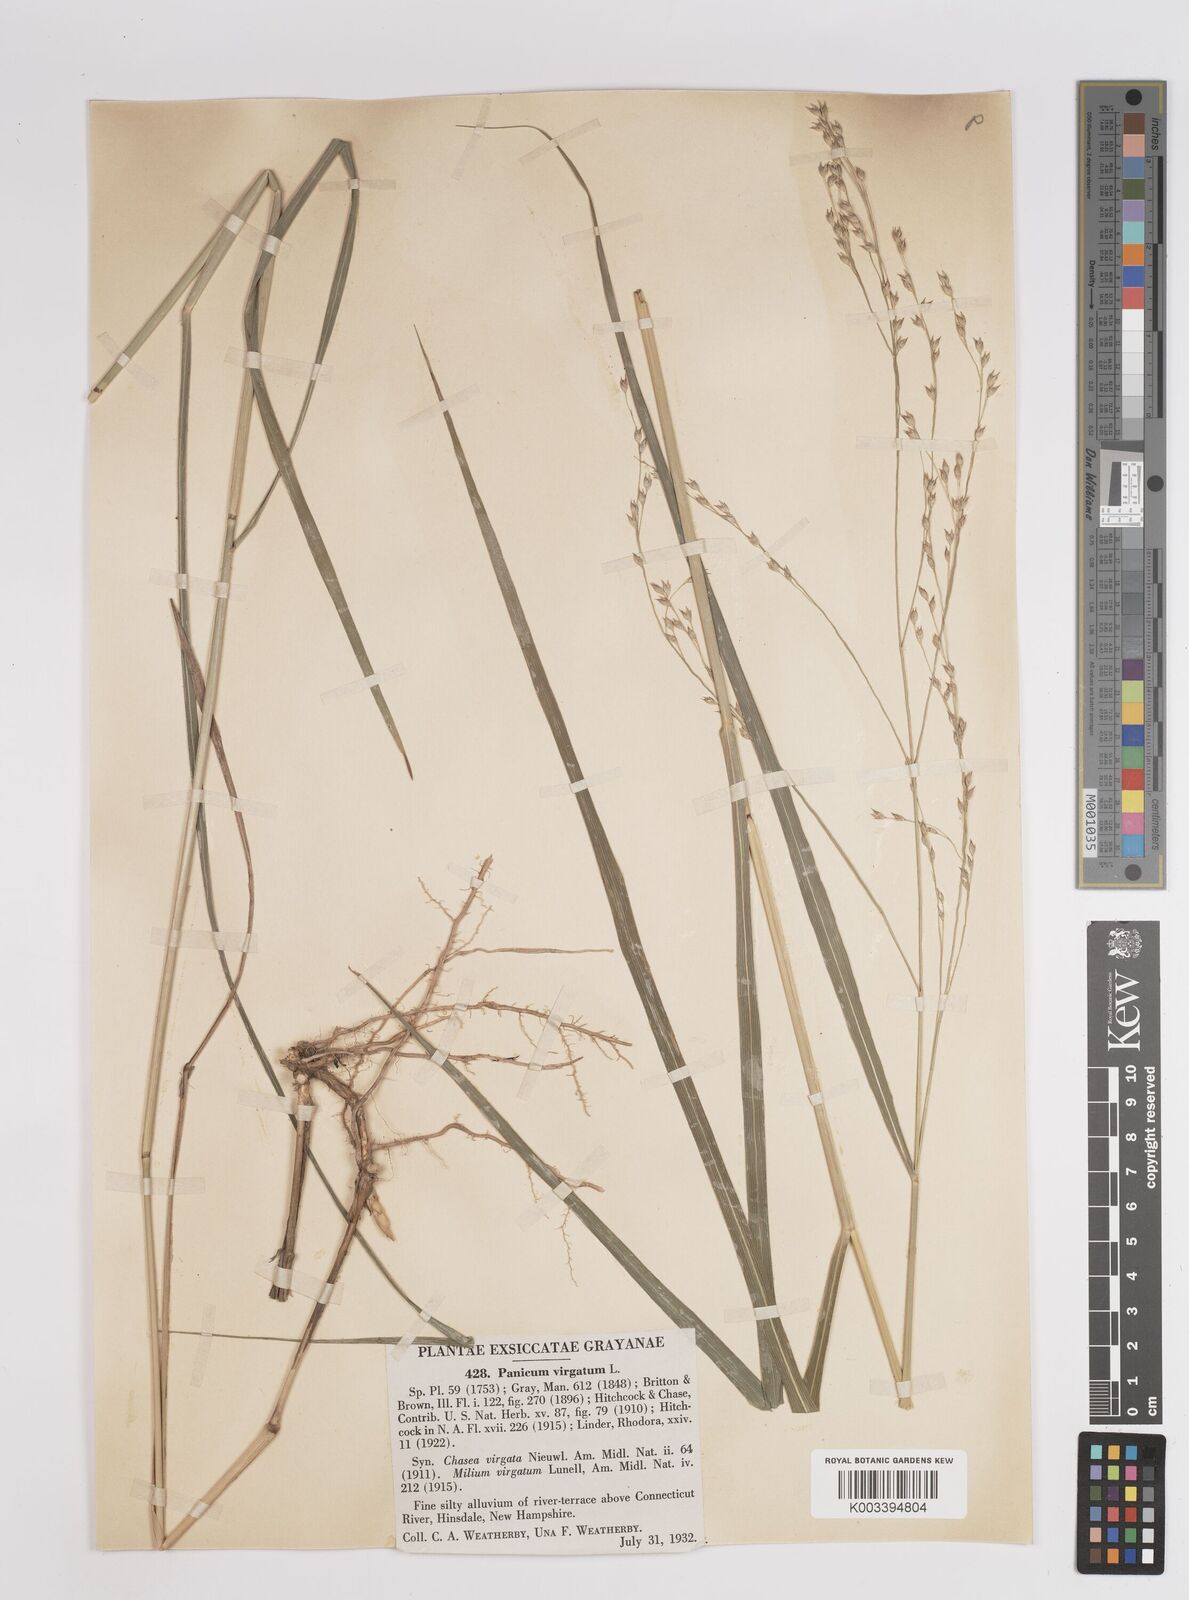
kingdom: Plantae
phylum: Tracheophyta
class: Liliopsida
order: Poales
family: Poaceae
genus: Panicum
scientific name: Panicum virgatum
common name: Switchgrass
